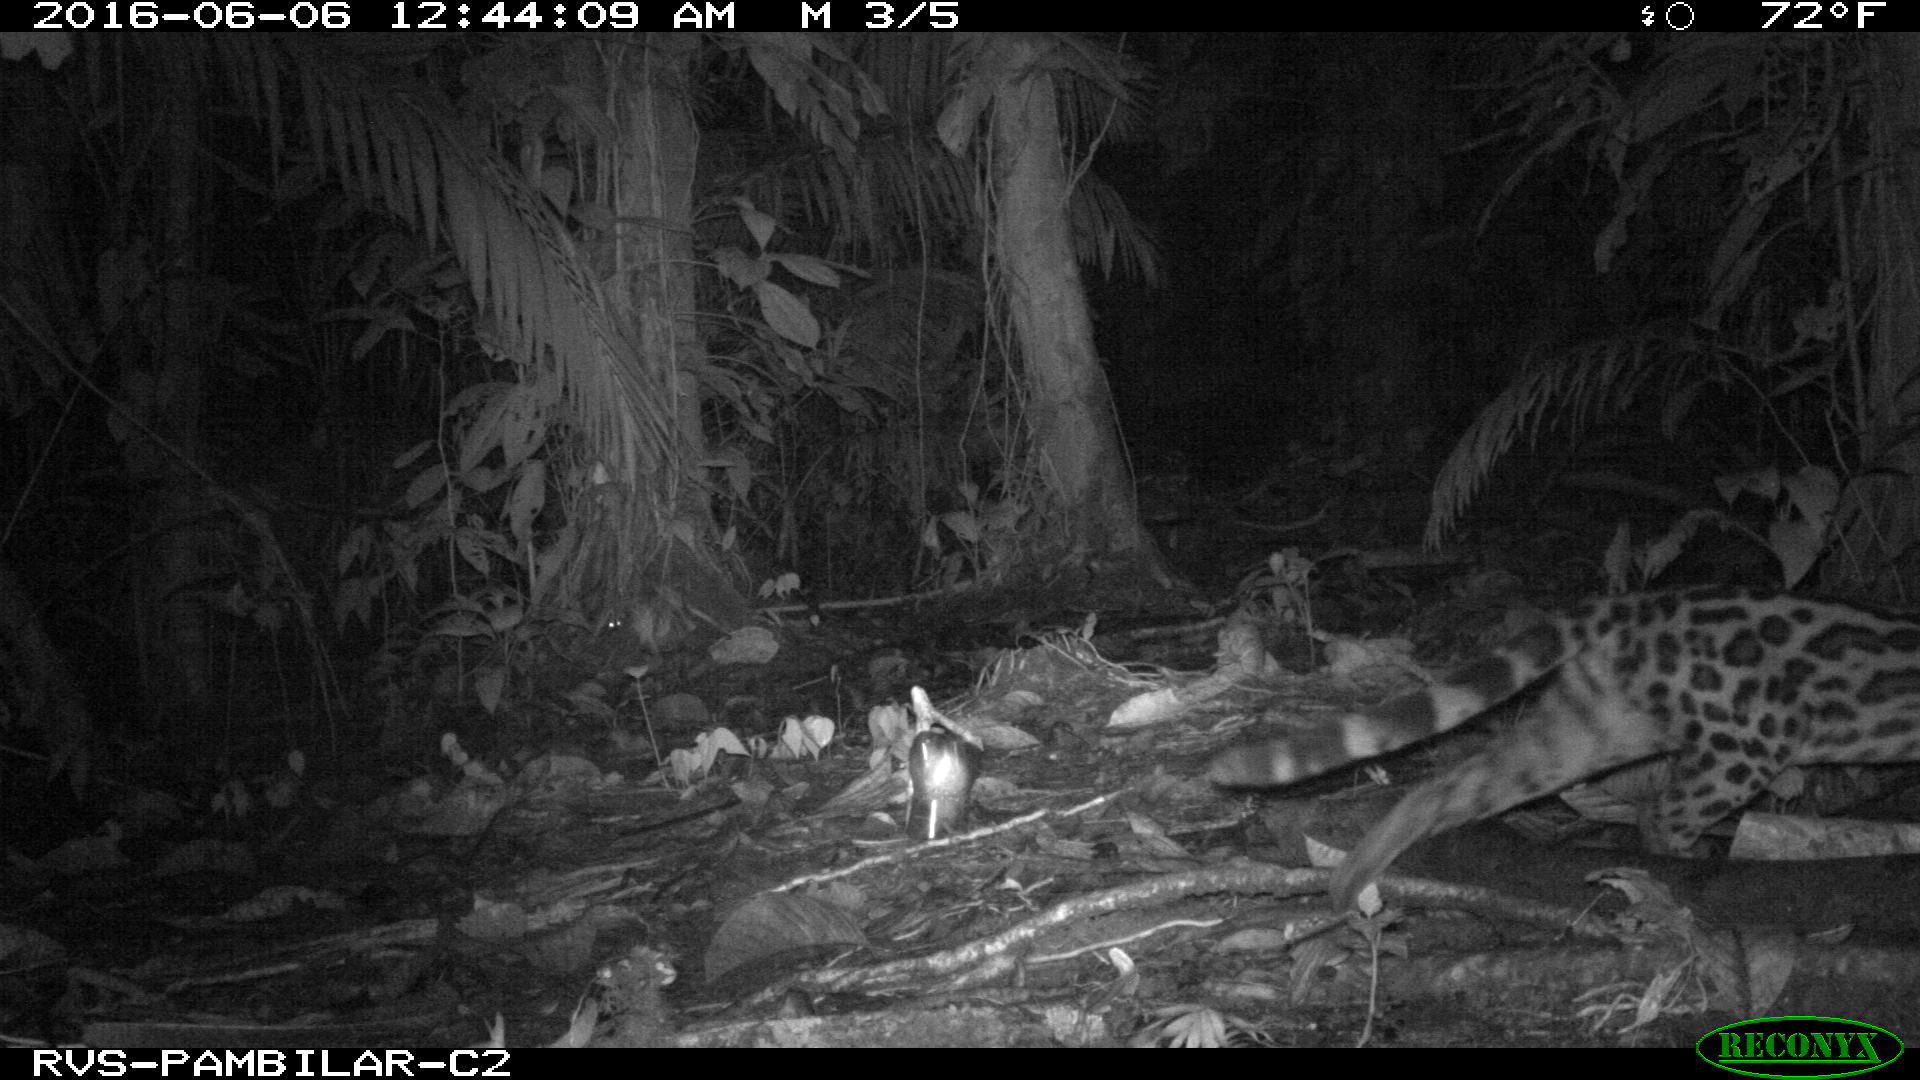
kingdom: Animalia
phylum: Chordata
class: Mammalia
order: Carnivora
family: Felidae
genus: Leopardus
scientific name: Leopardus pardalis
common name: Ocelot
